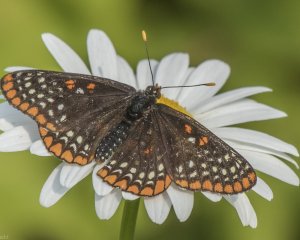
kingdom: Animalia
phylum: Arthropoda
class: Insecta
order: Lepidoptera
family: Nymphalidae
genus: Euphydryas
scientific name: Euphydryas phaeton
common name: Baltimore Checkerspot
